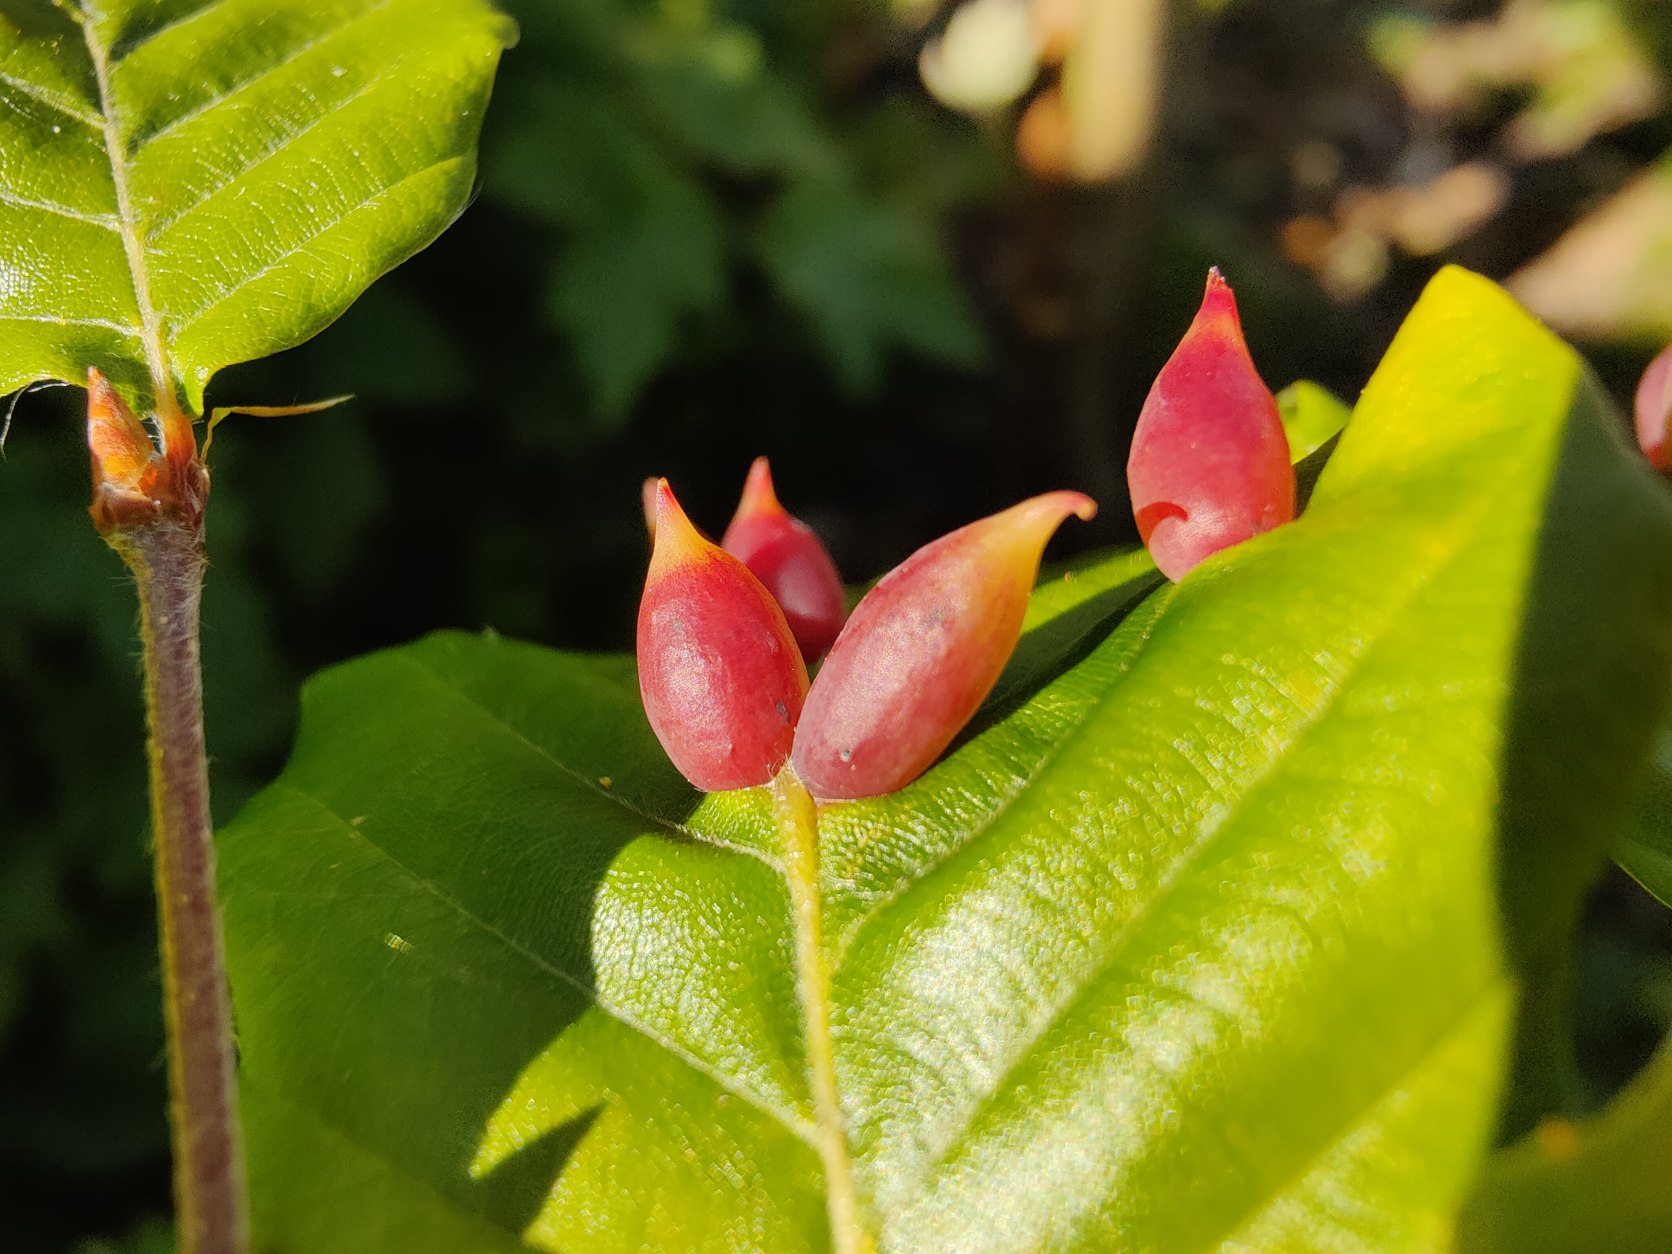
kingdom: Animalia
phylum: Arthropoda
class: Insecta
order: Diptera
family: Cecidomyiidae
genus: Mikiola
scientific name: Mikiola fagi
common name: Bøgegalmyg
